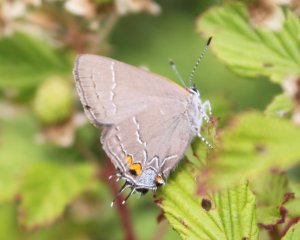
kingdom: Animalia
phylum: Arthropoda
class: Insecta
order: Lepidoptera
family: Lycaenidae
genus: Fixsenia
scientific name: Fixsenia favonius
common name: Oak Hairstreak
